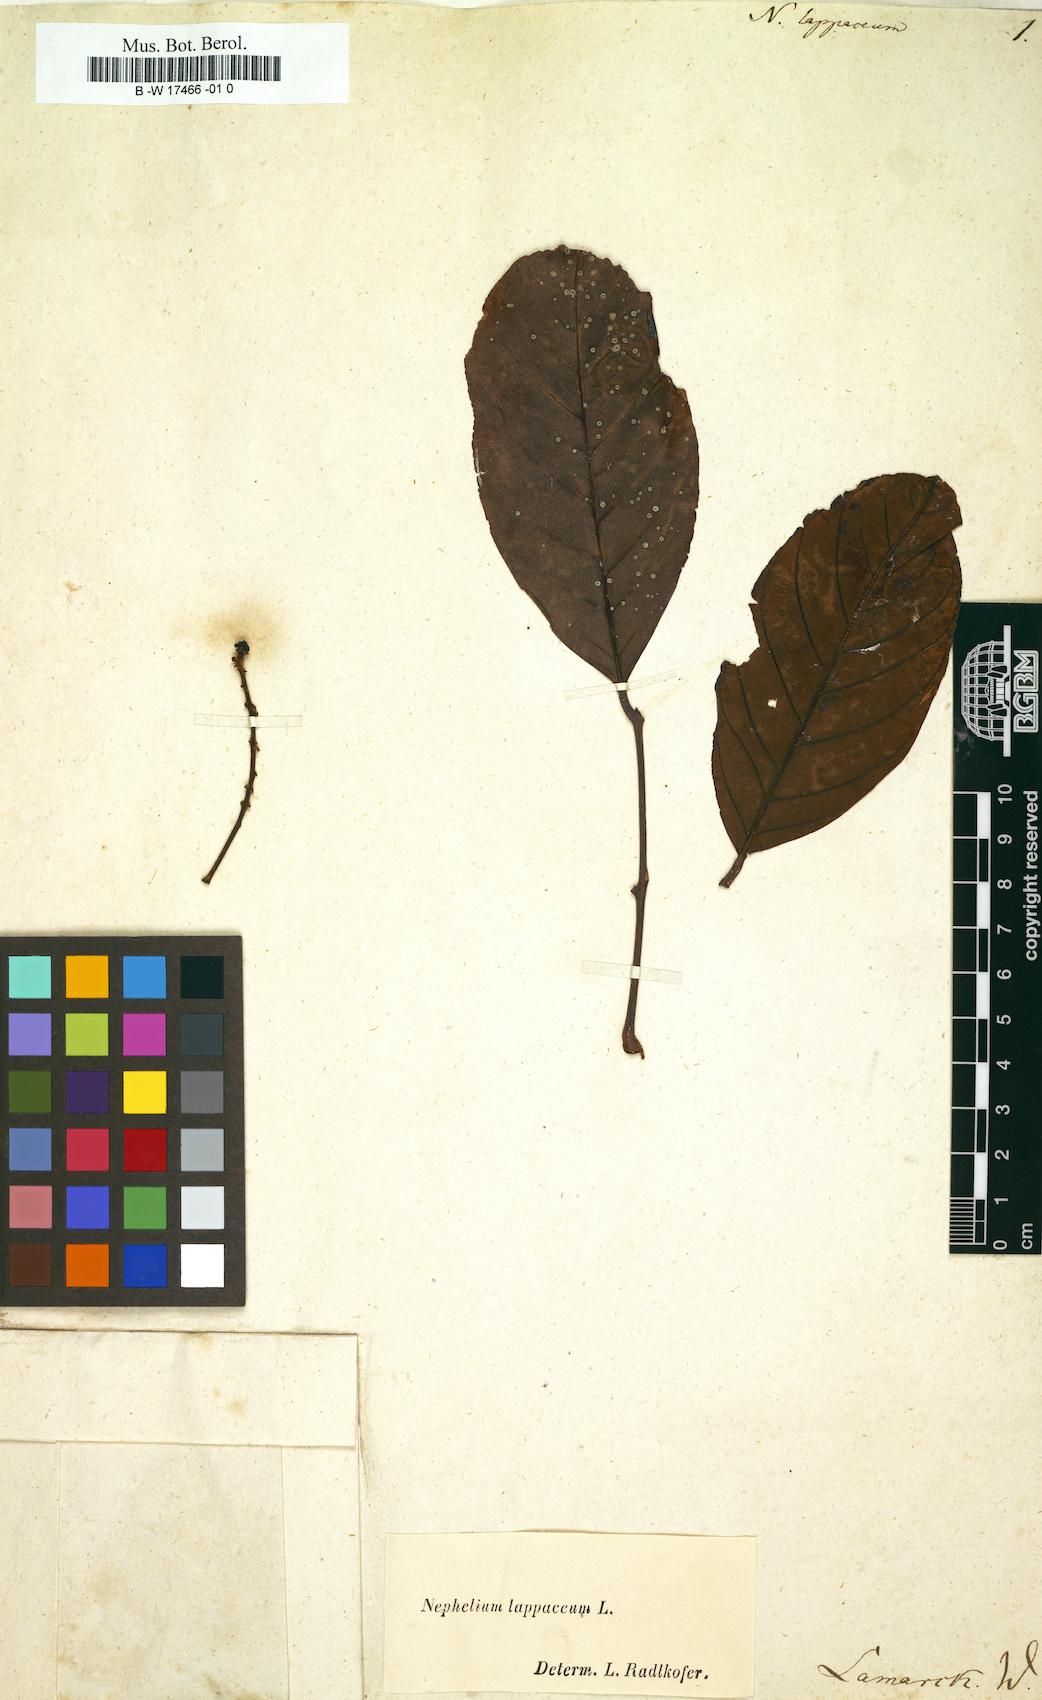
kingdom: Plantae
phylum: Tracheophyta
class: Magnoliopsida
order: Sapindales
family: Sapindaceae
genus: Nephelium
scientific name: Nephelium lappaceum
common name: Rambutan
